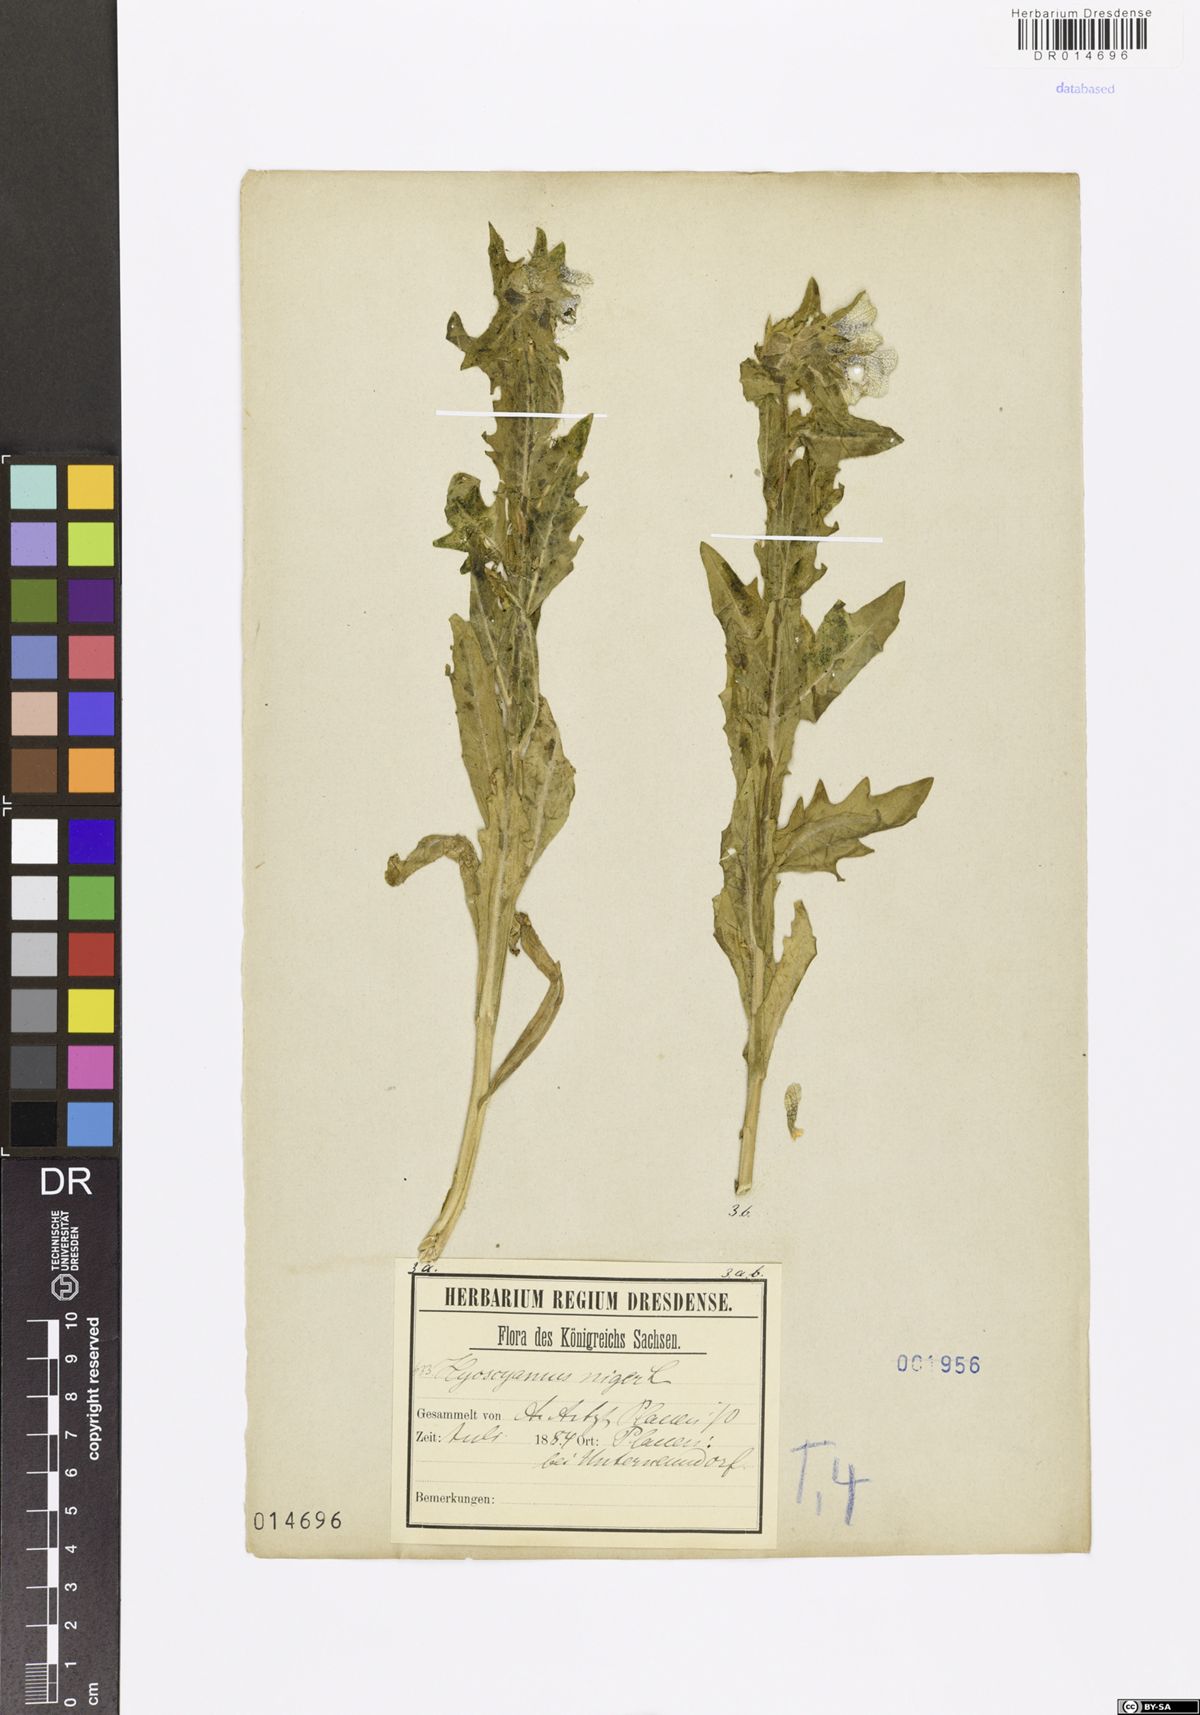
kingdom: Plantae
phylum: Tracheophyta
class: Magnoliopsida
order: Solanales
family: Solanaceae
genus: Hyoscyamus
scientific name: Hyoscyamus niger
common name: Henbane
